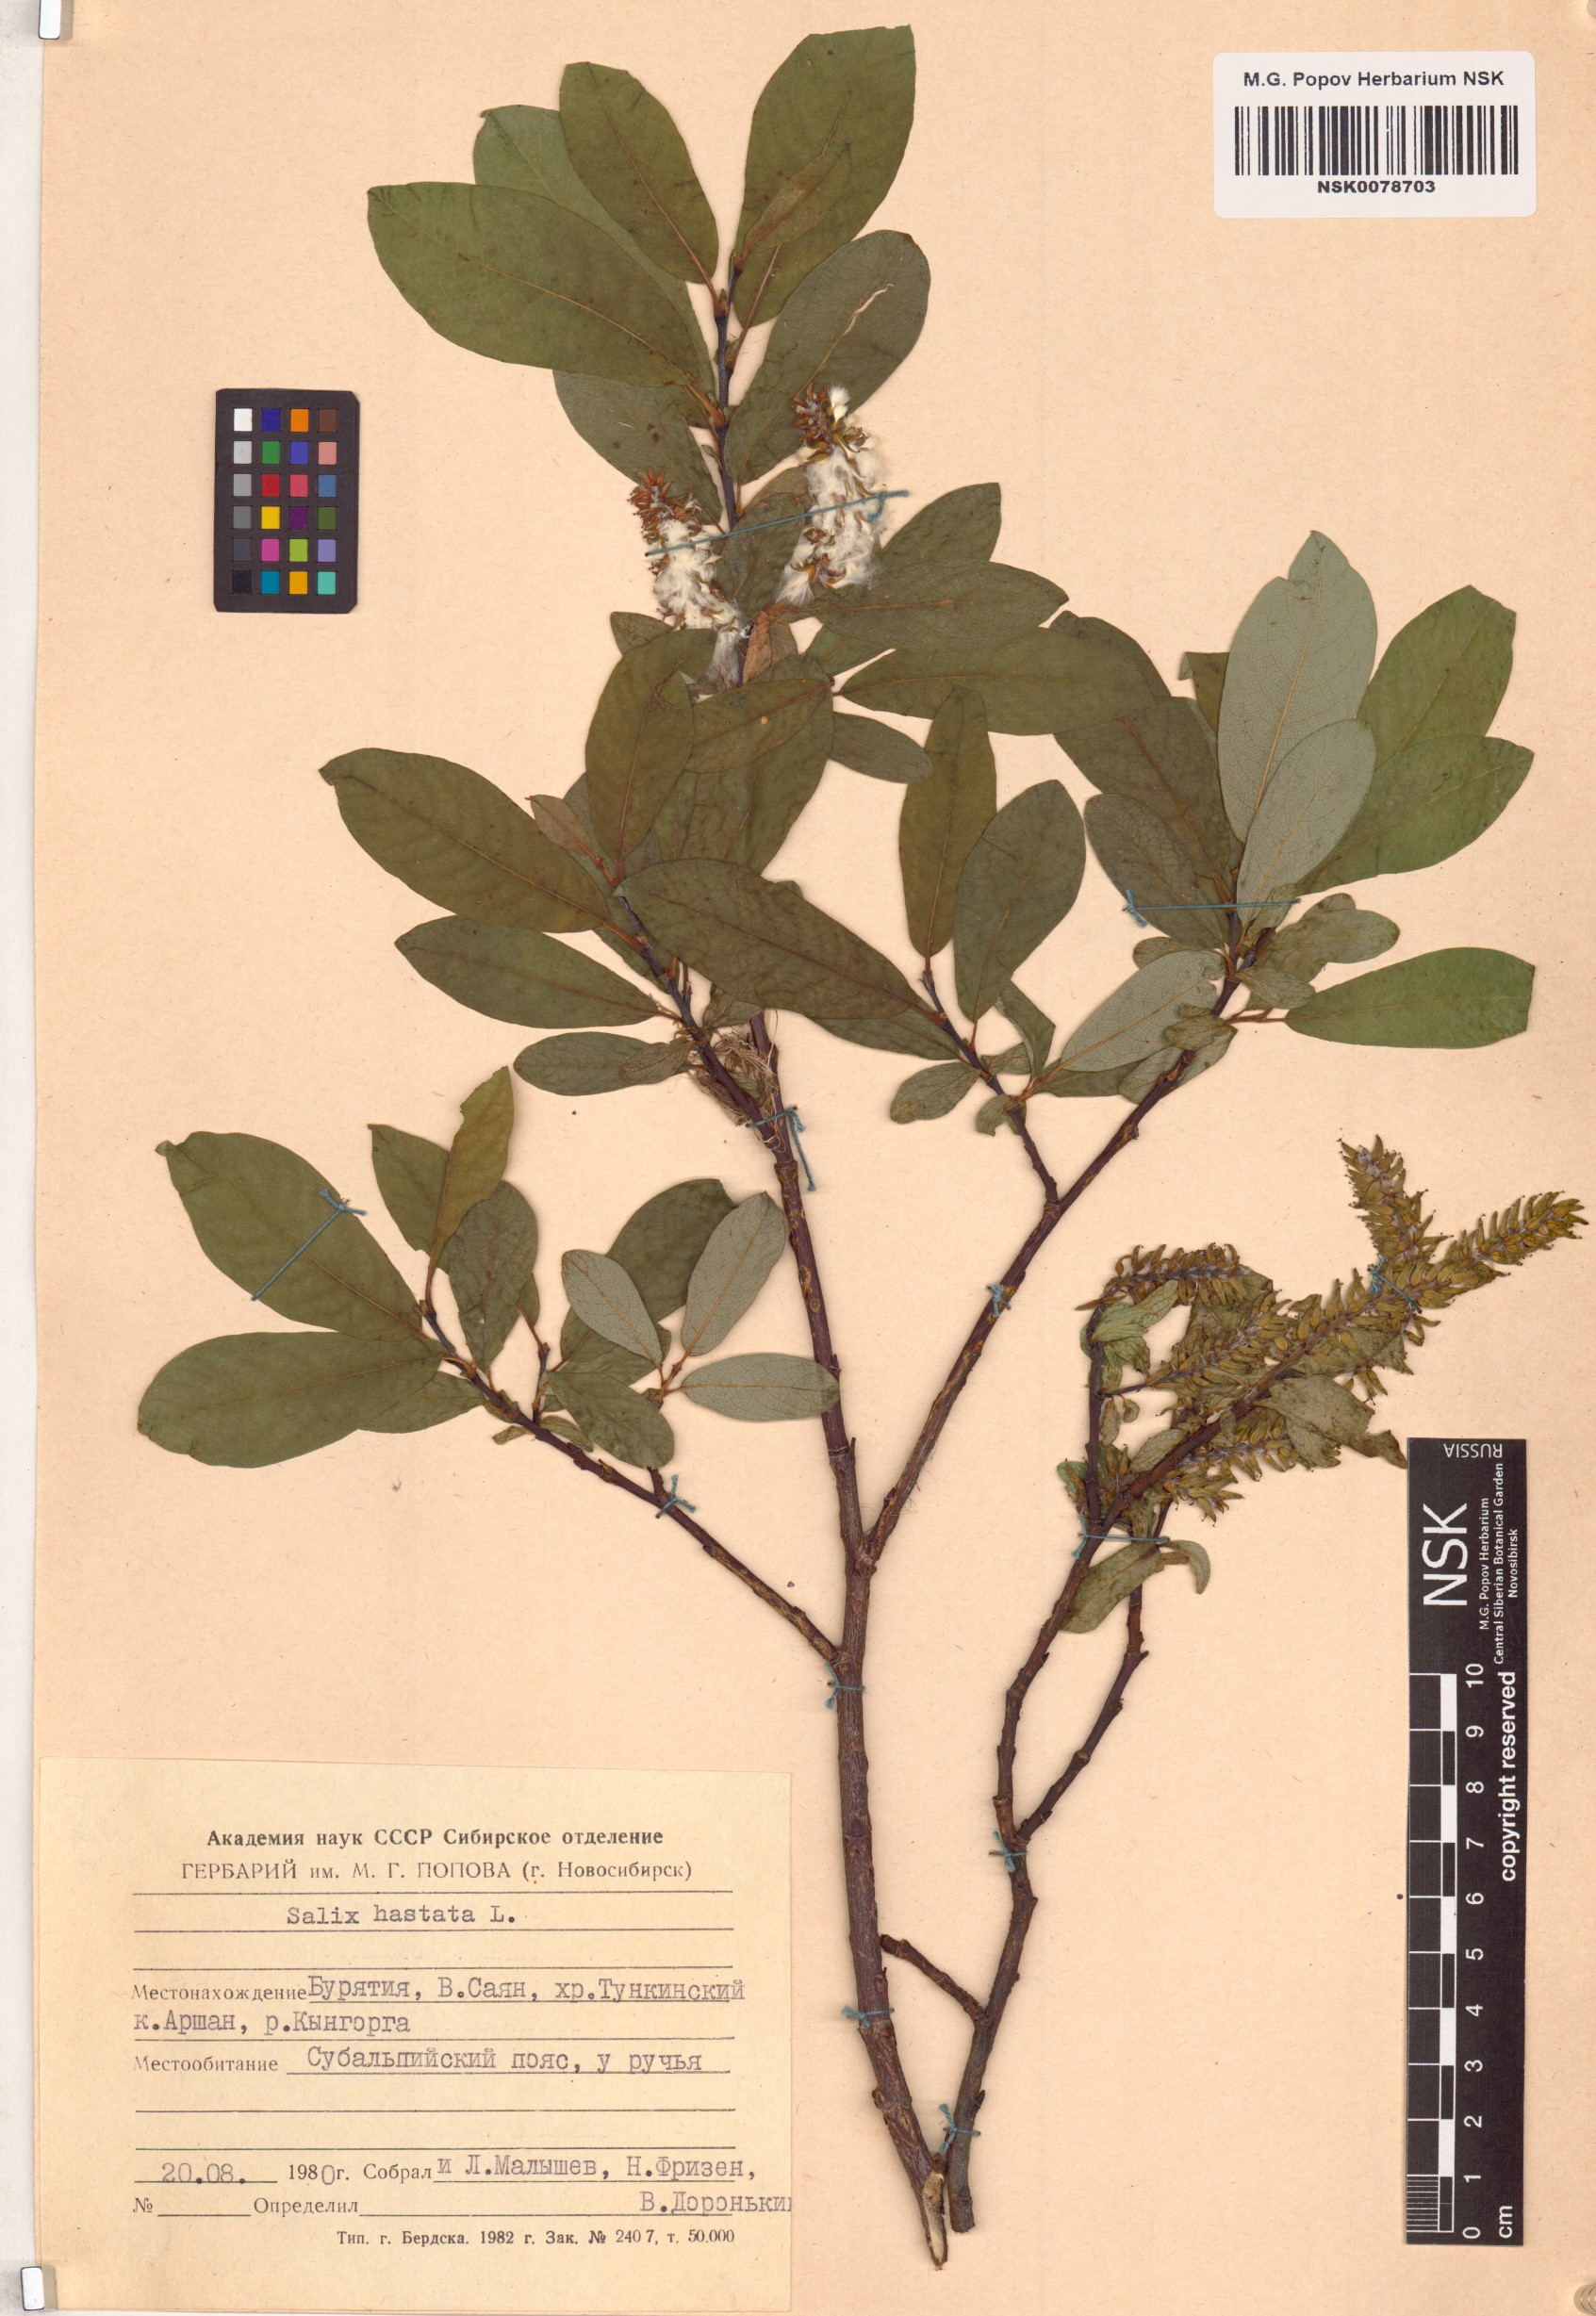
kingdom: Plantae
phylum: Tracheophyta
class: Magnoliopsida
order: Malpighiales
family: Salicaceae
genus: Salix
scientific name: Salix hastata
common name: Halberd willow
